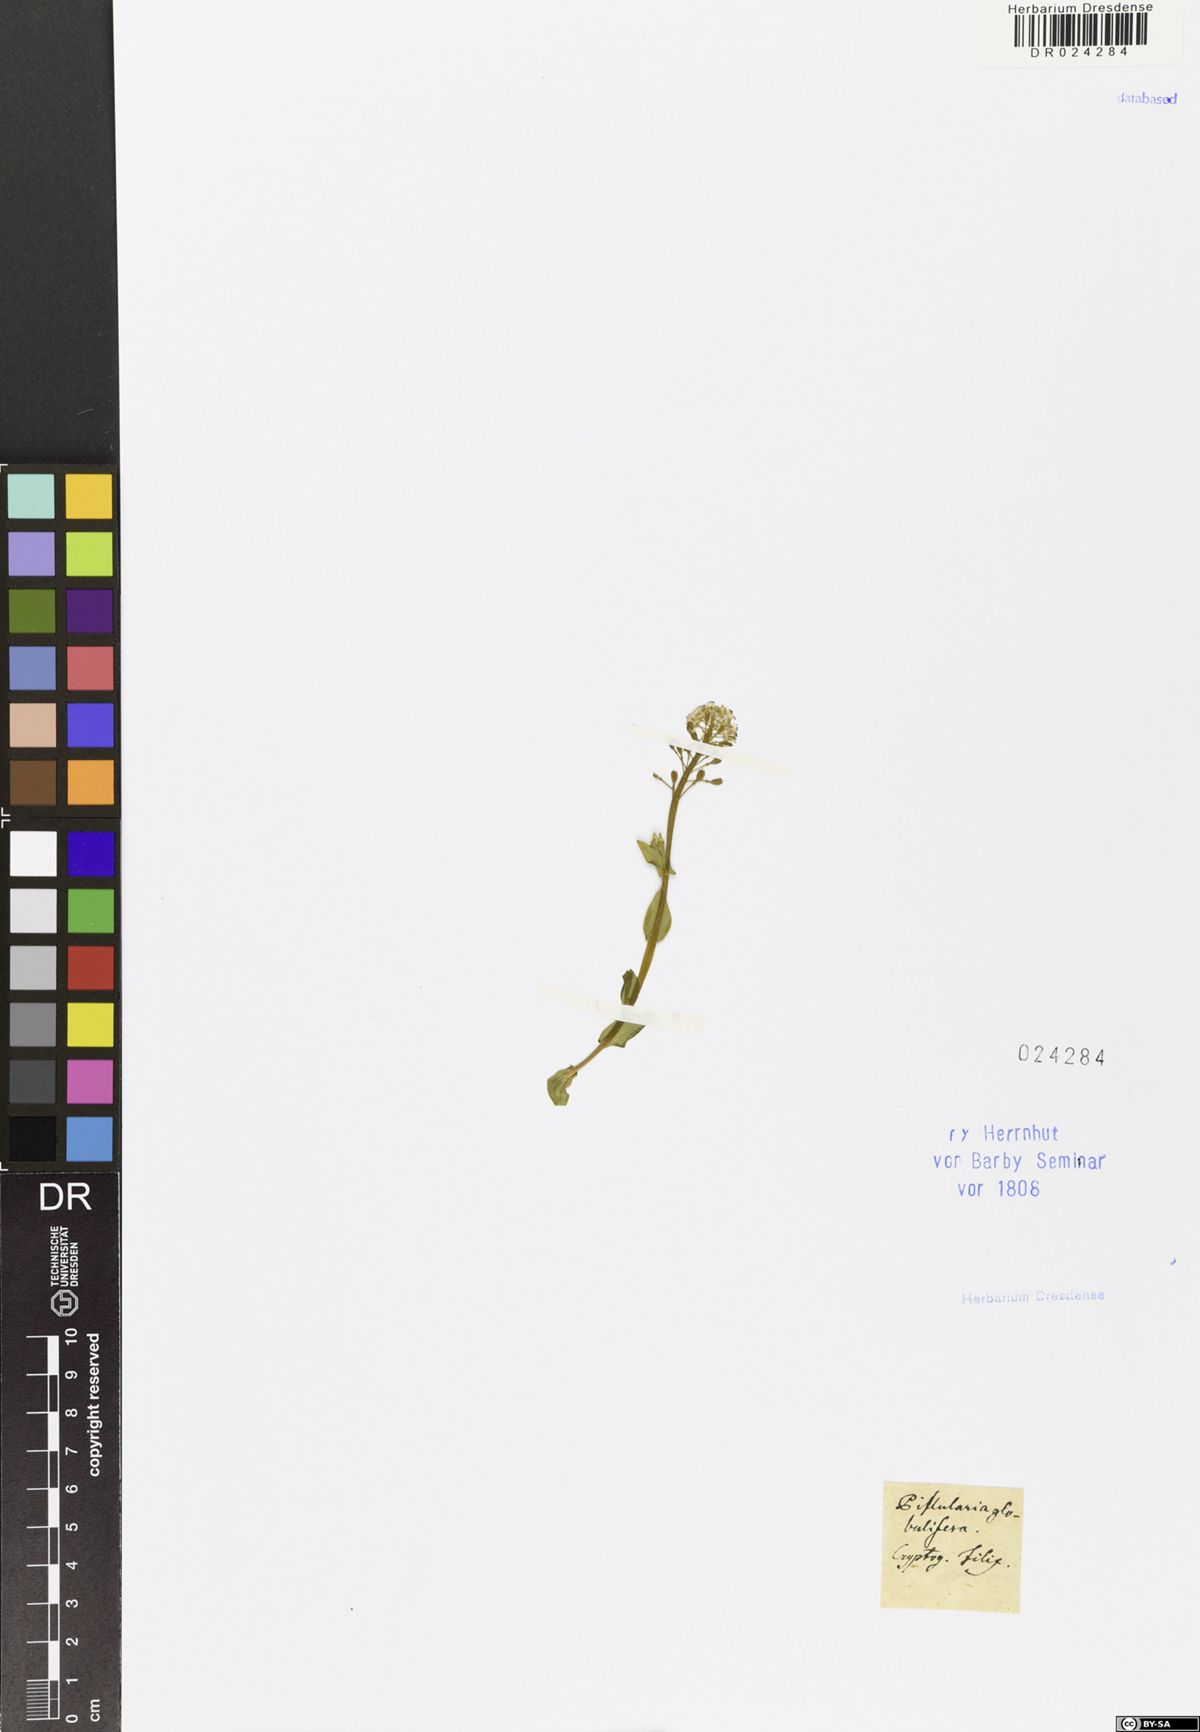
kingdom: Plantae
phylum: Tracheophyta
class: Polypodiopsida
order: Salviniales
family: Marsileaceae
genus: Pilularia
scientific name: Pilularia globulifera
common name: Pillwort
